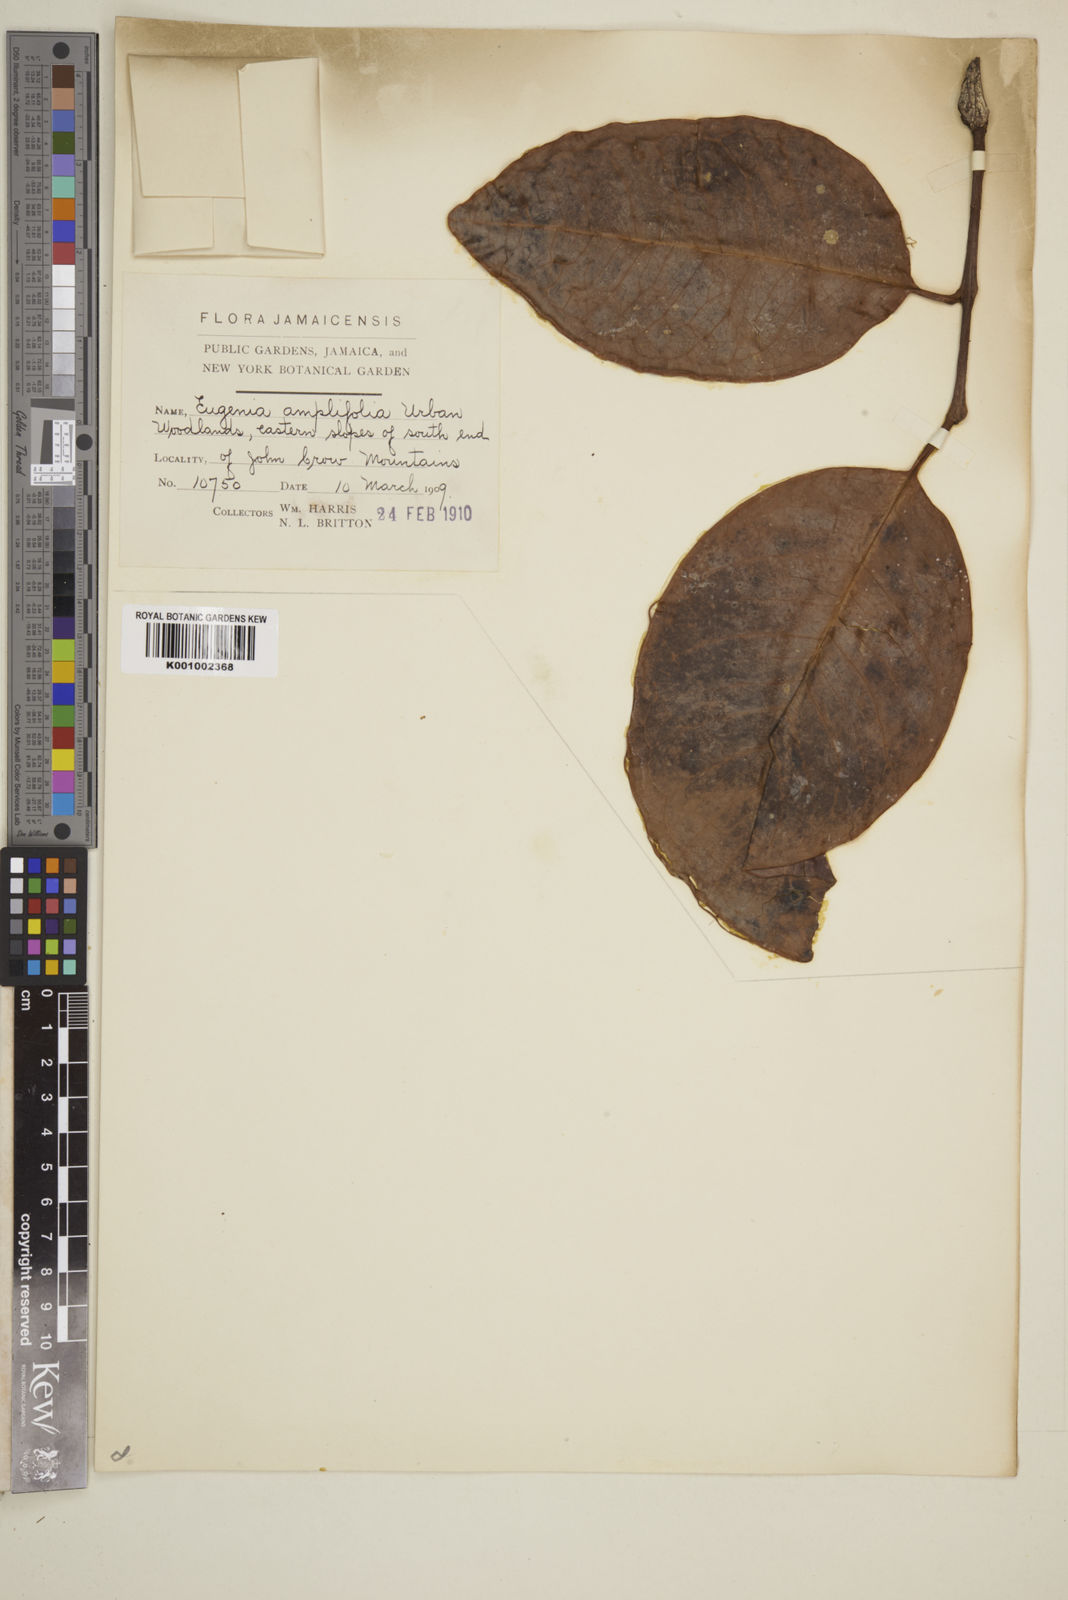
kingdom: Plantae
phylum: Tracheophyta
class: Magnoliopsida
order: Myrtales
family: Myrtaceae
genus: Eugenia
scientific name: Eugenia amplifolia
